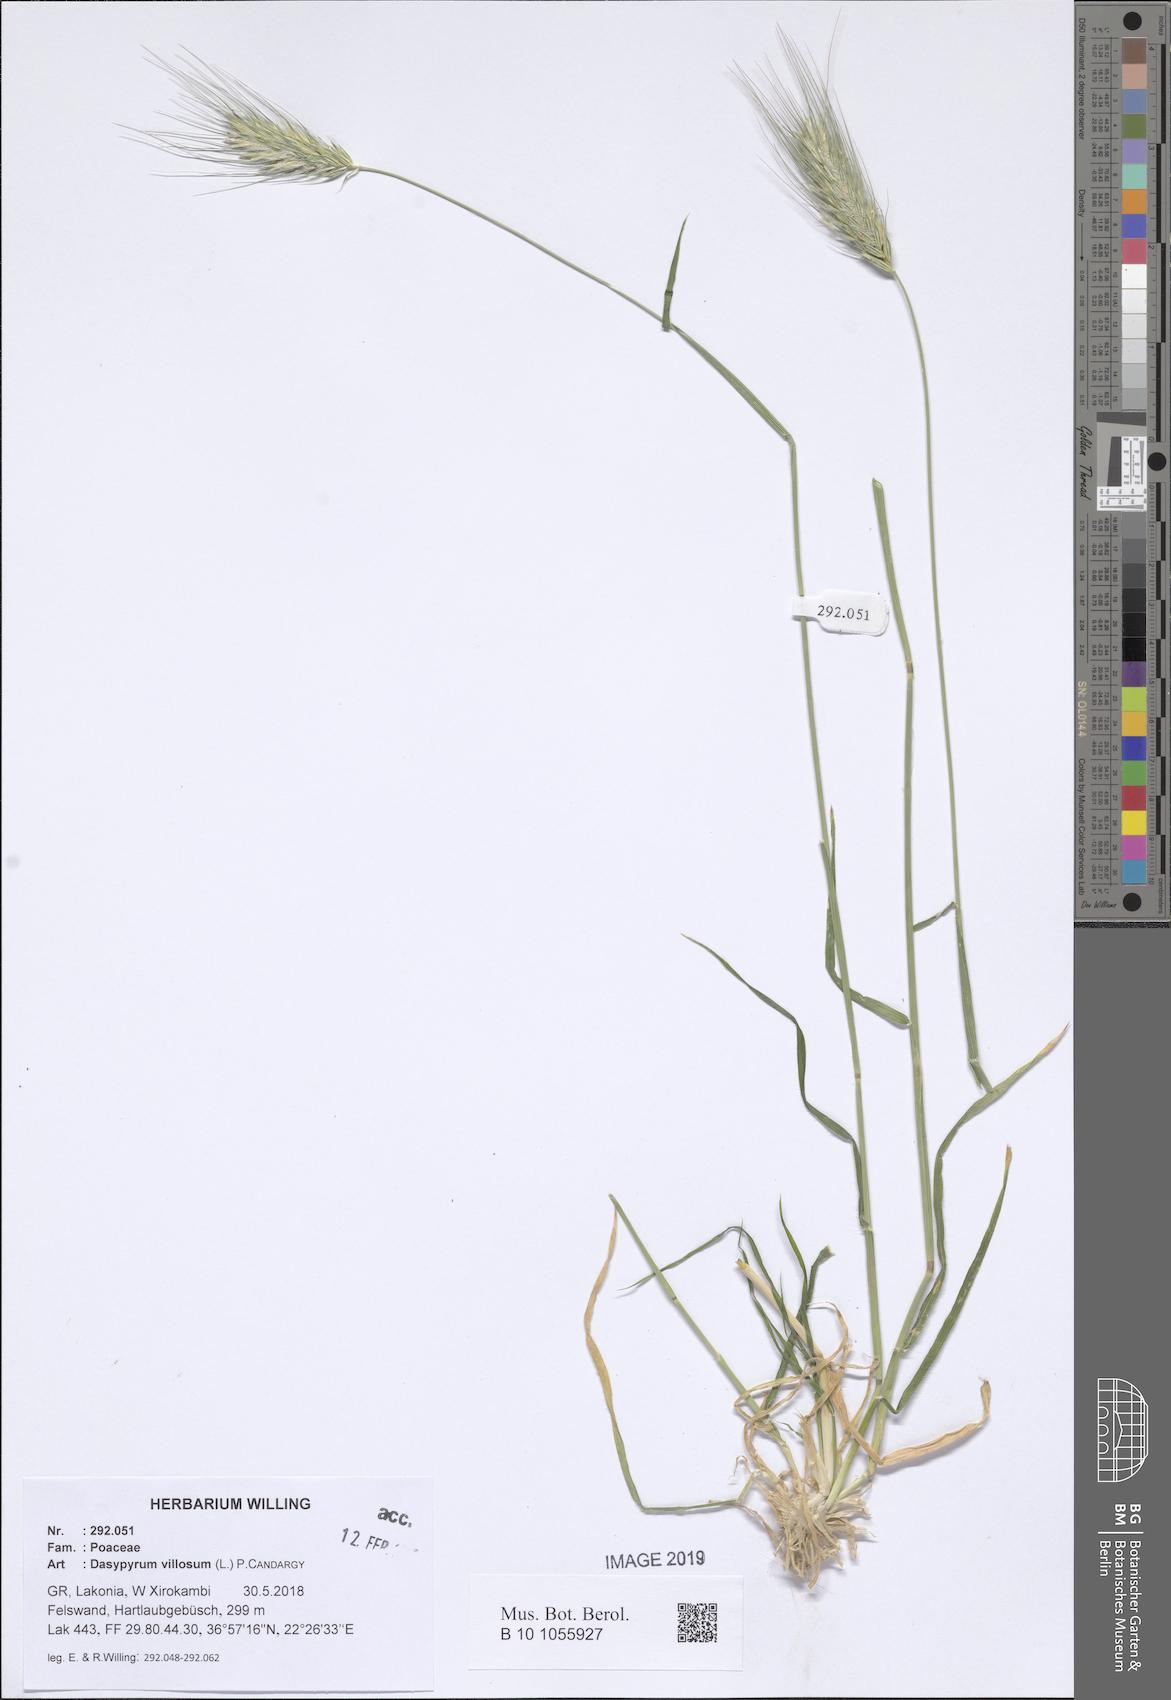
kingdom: Plantae
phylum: Tracheophyta
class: Liliopsida
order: Poales
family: Poaceae
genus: Dasypyrum
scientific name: Dasypyrum villosum
